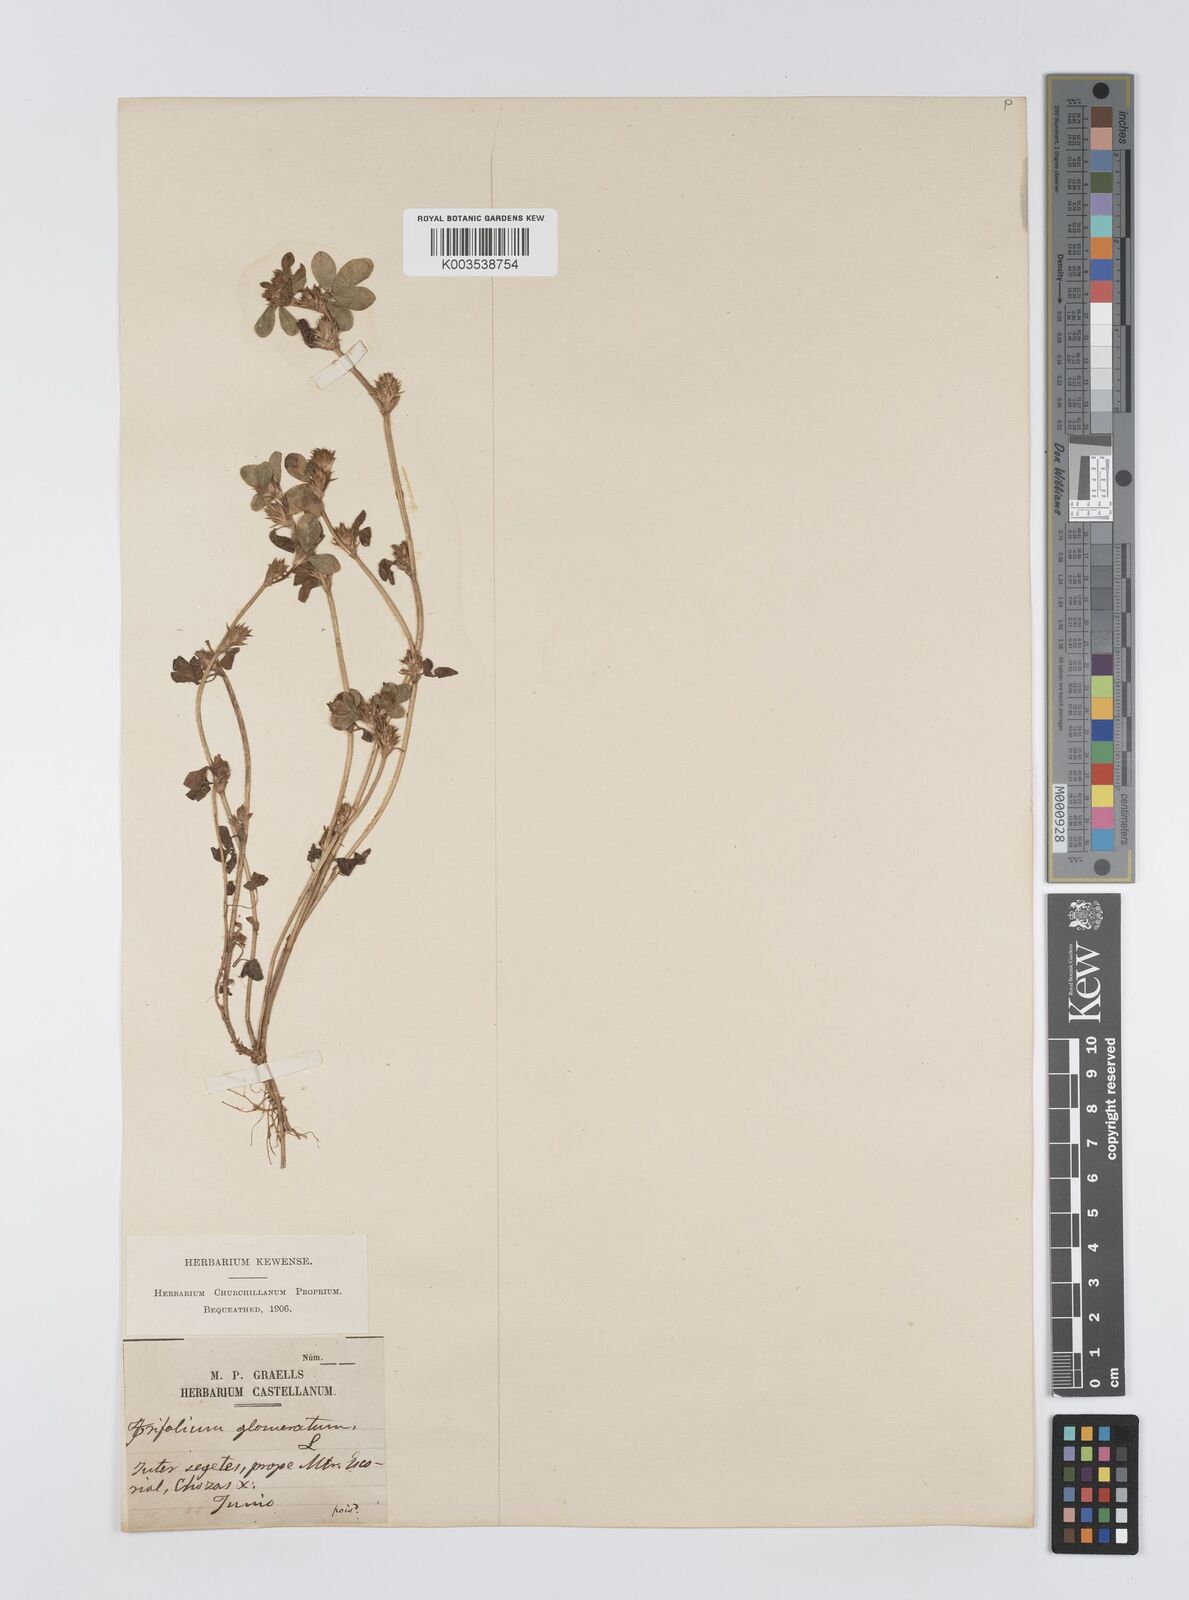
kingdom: Plantae
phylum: Tracheophyta
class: Magnoliopsida
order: Fabales
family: Fabaceae
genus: Trifolium
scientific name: Trifolium glomeratum
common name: Clustered clover
